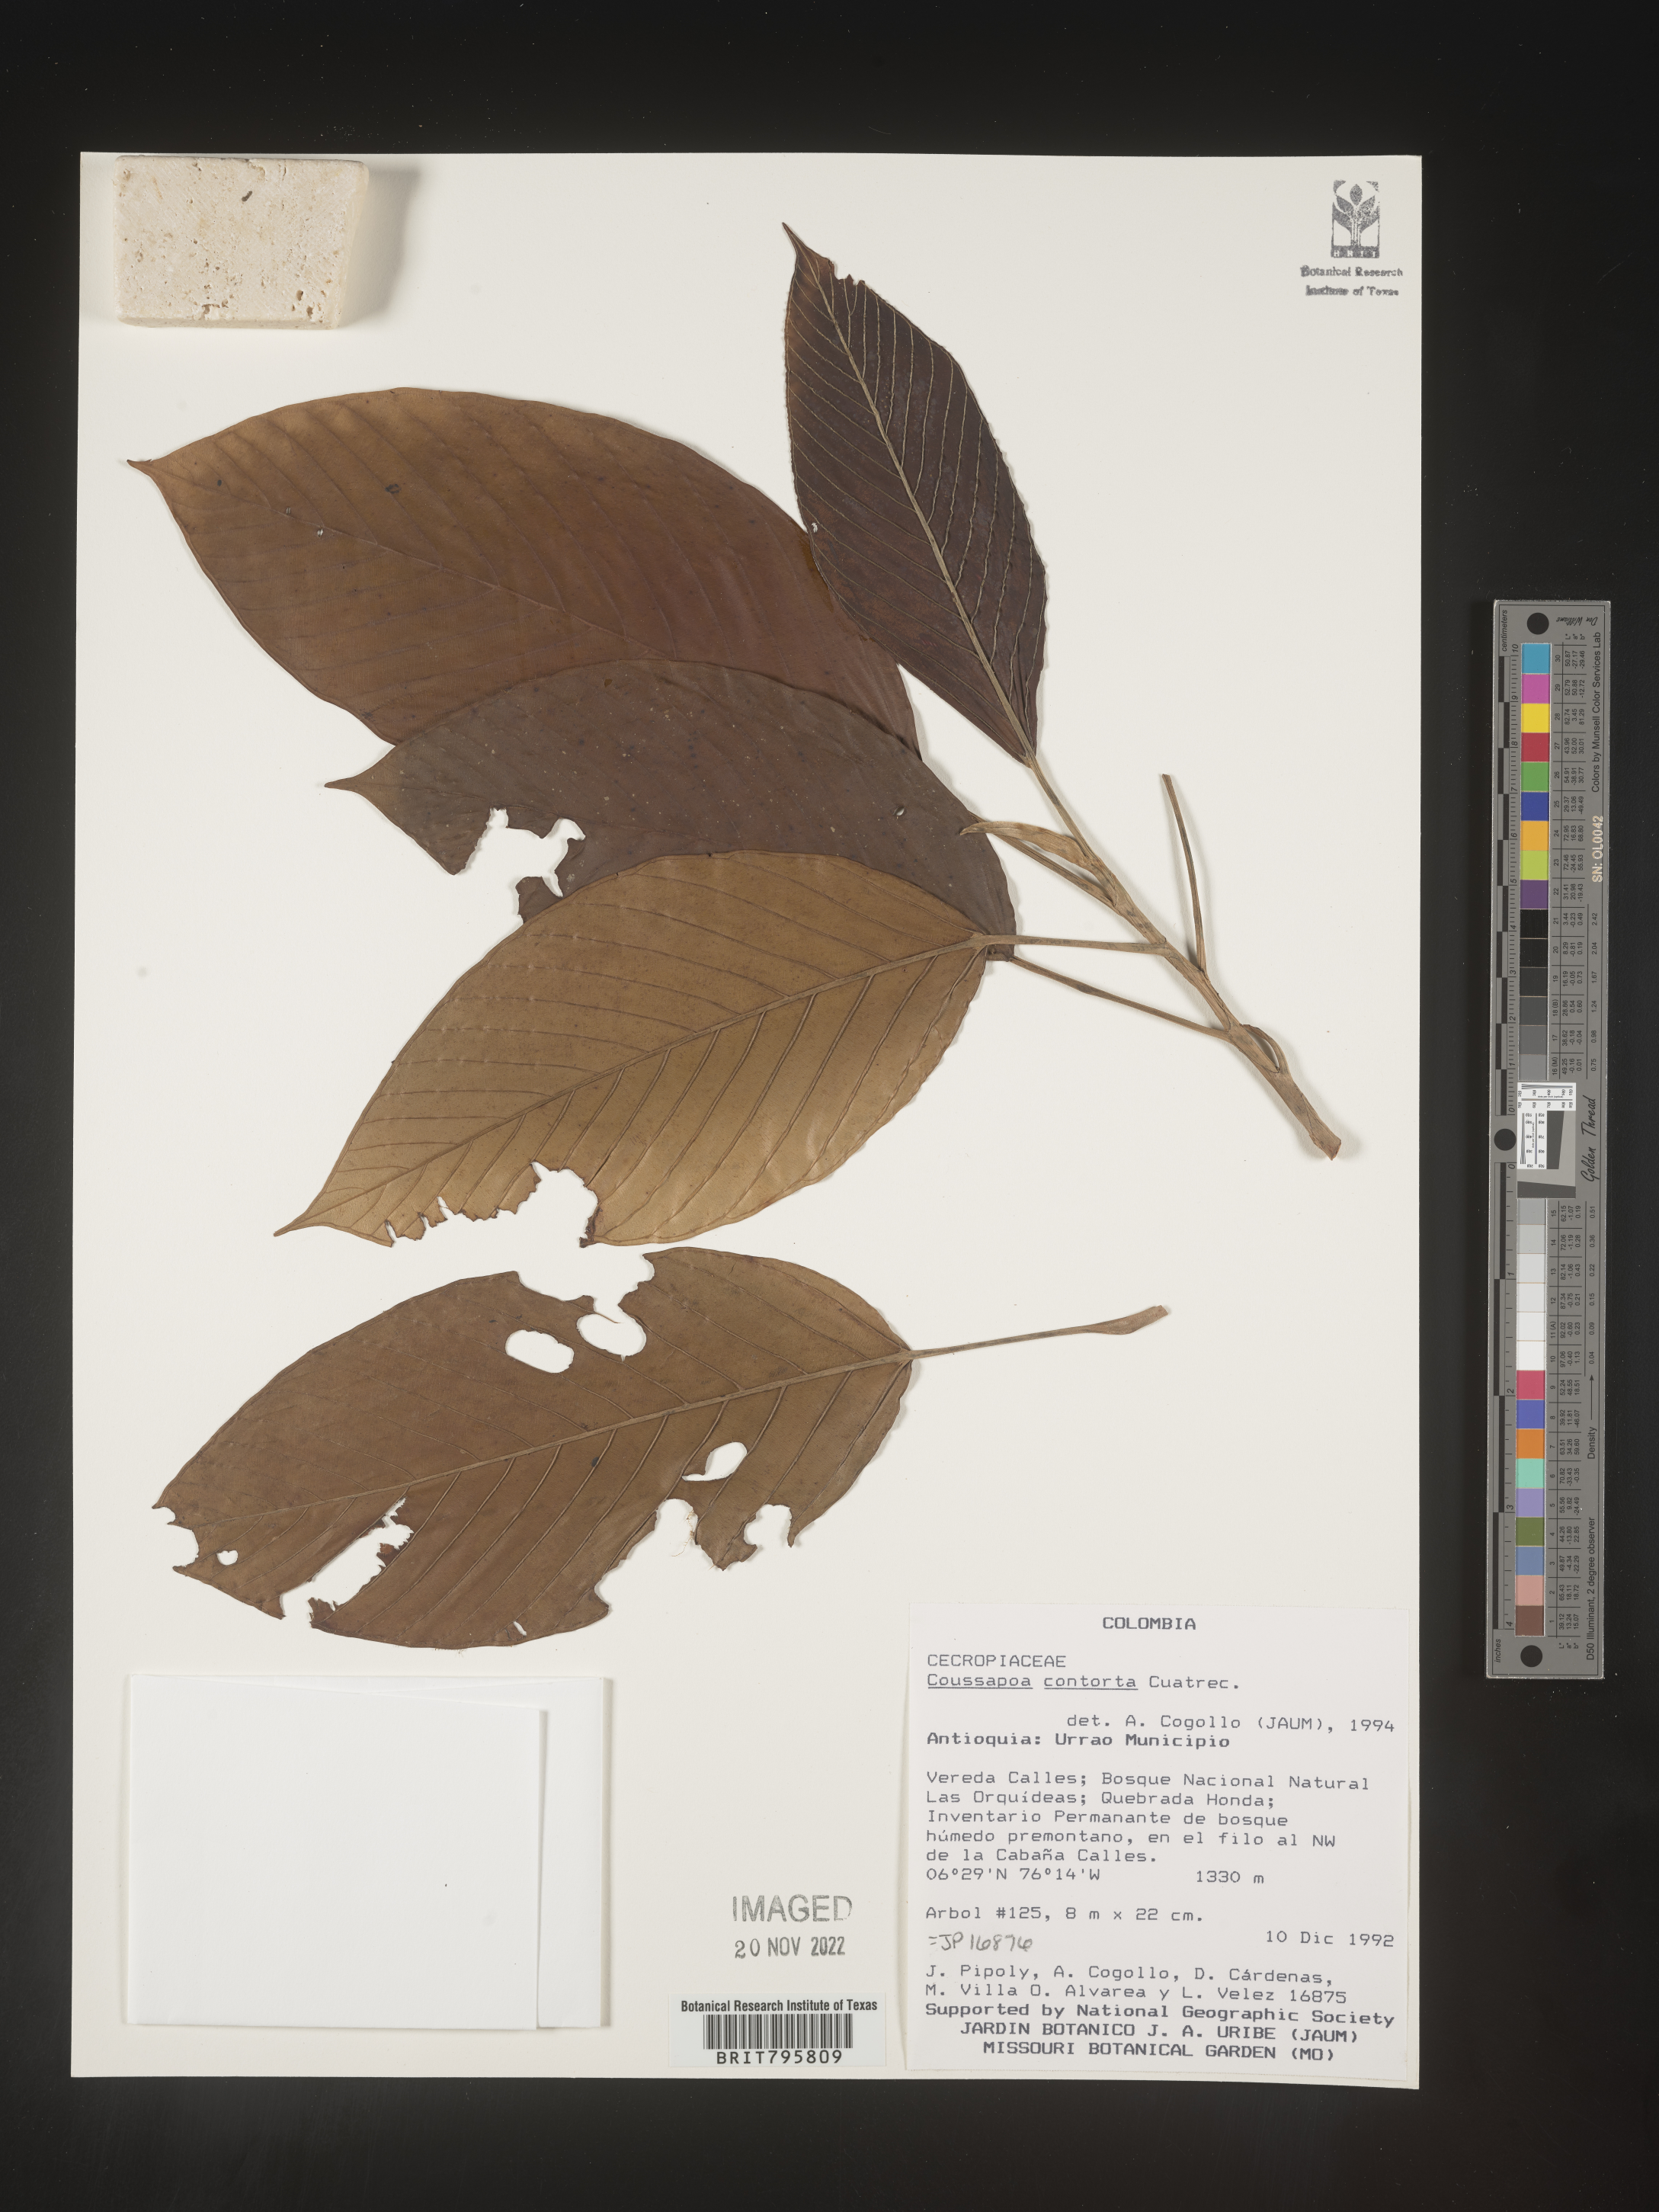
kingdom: Plantae
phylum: Tracheophyta
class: Magnoliopsida
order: Rosales
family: Urticaceae
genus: Coussapoa
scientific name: Coussapoa
